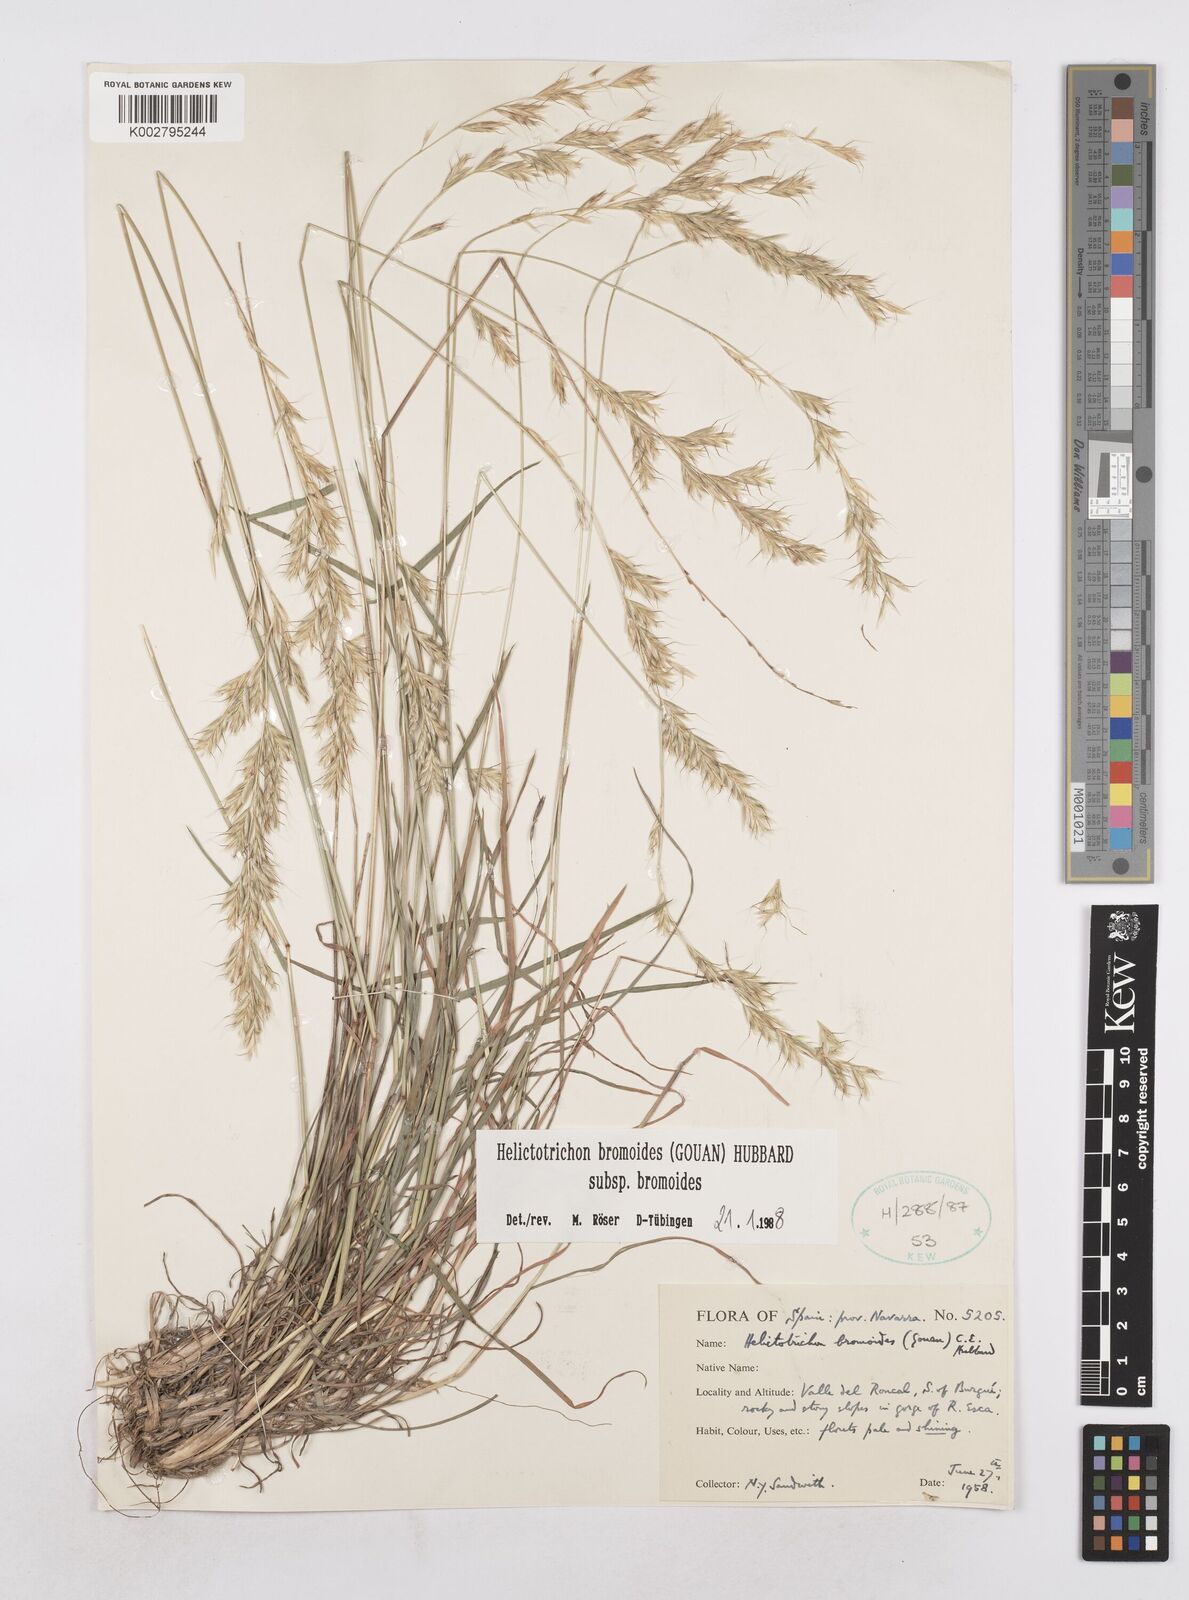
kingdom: Plantae
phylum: Tracheophyta
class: Liliopsida
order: Poales
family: Poaceae
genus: Helictochloa
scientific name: Helictochloa bromoides
